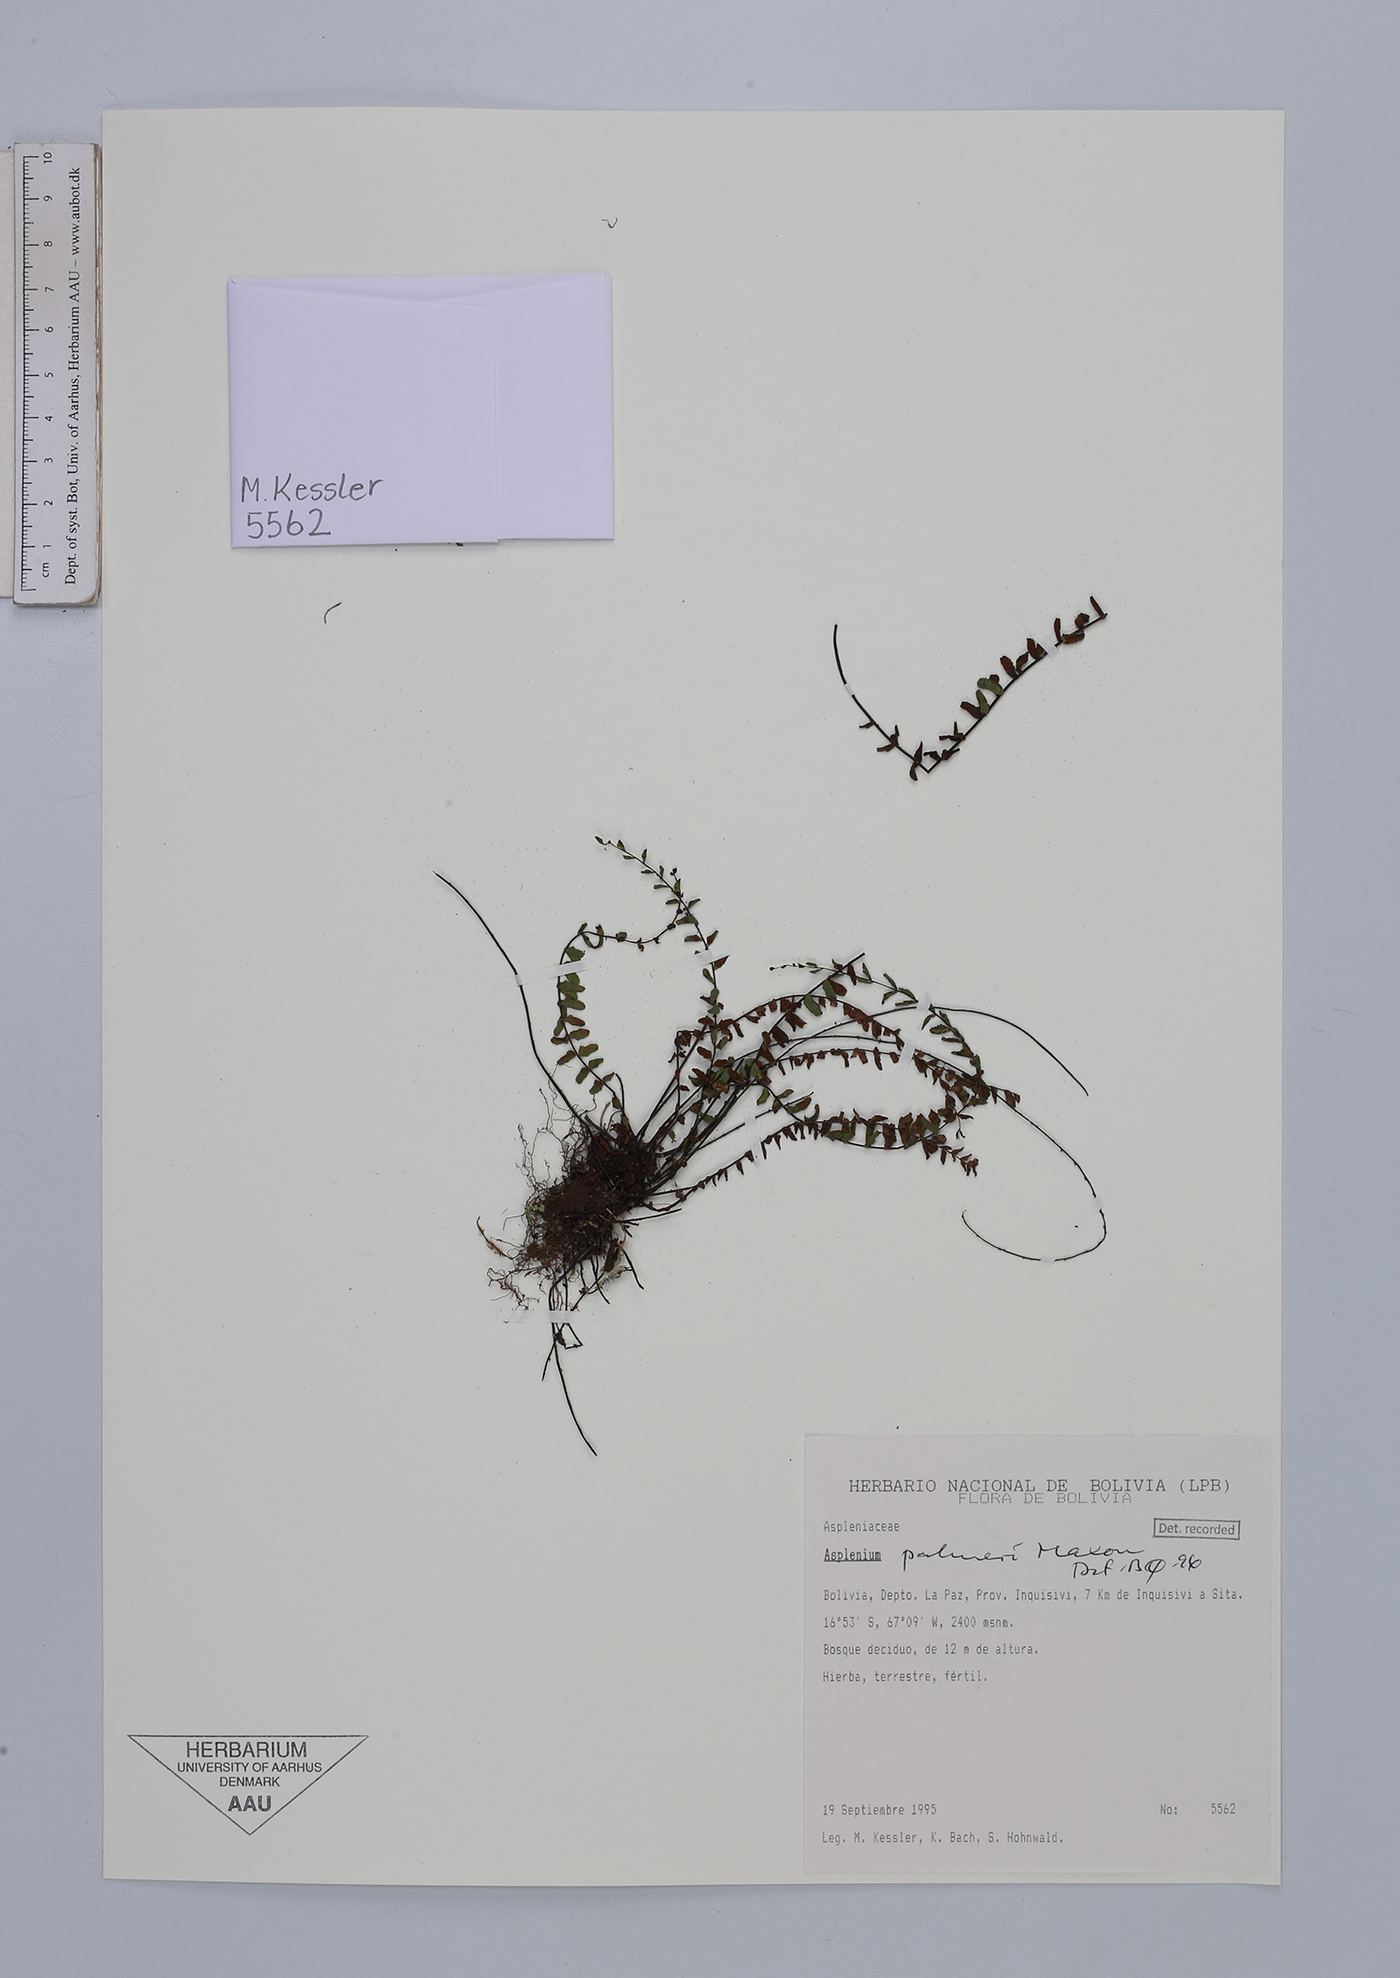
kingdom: Plantae
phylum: Tracheophyta
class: Polypodiopsida
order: Polypodiales
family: Aspleniaceae
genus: Asplenium
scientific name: Asplenium palmeri
